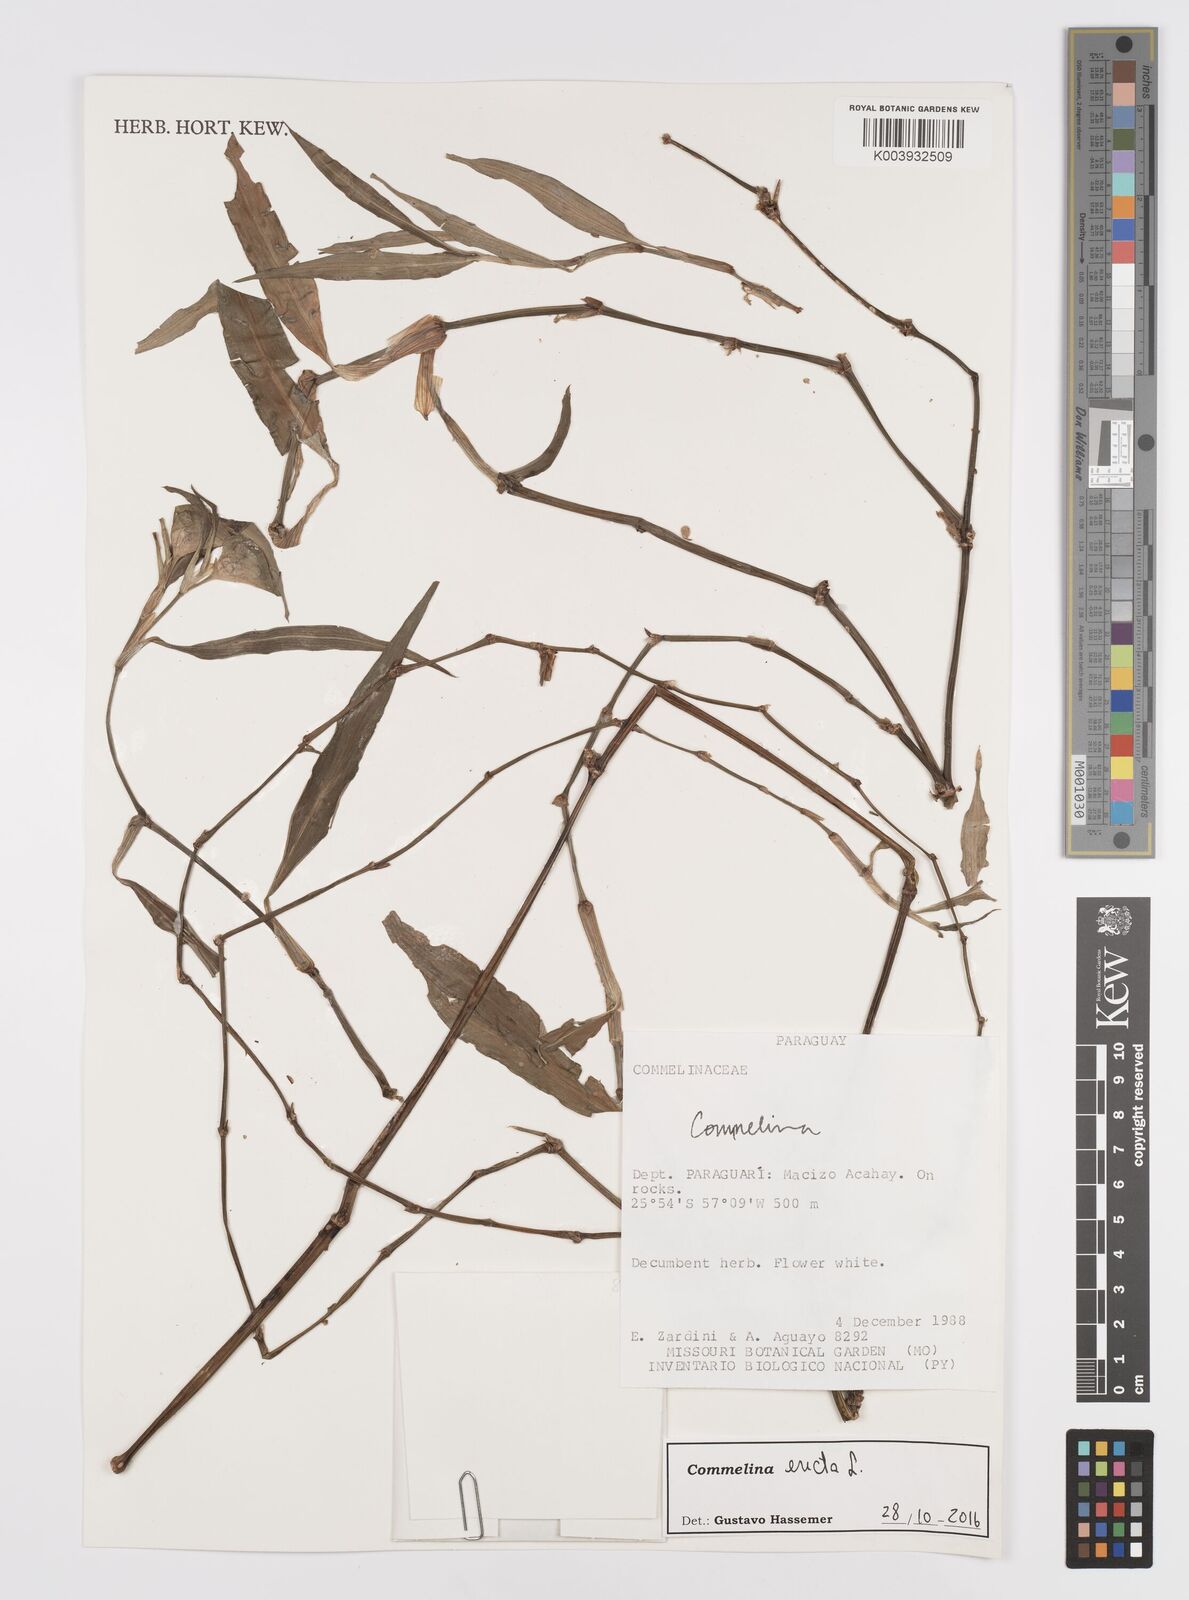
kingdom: Plantae
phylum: Tracheophyta
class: Liliopsida
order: Commelinales
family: Commelinaceae
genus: Commelina
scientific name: Commelina erecta
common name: Blousel blommetjie
